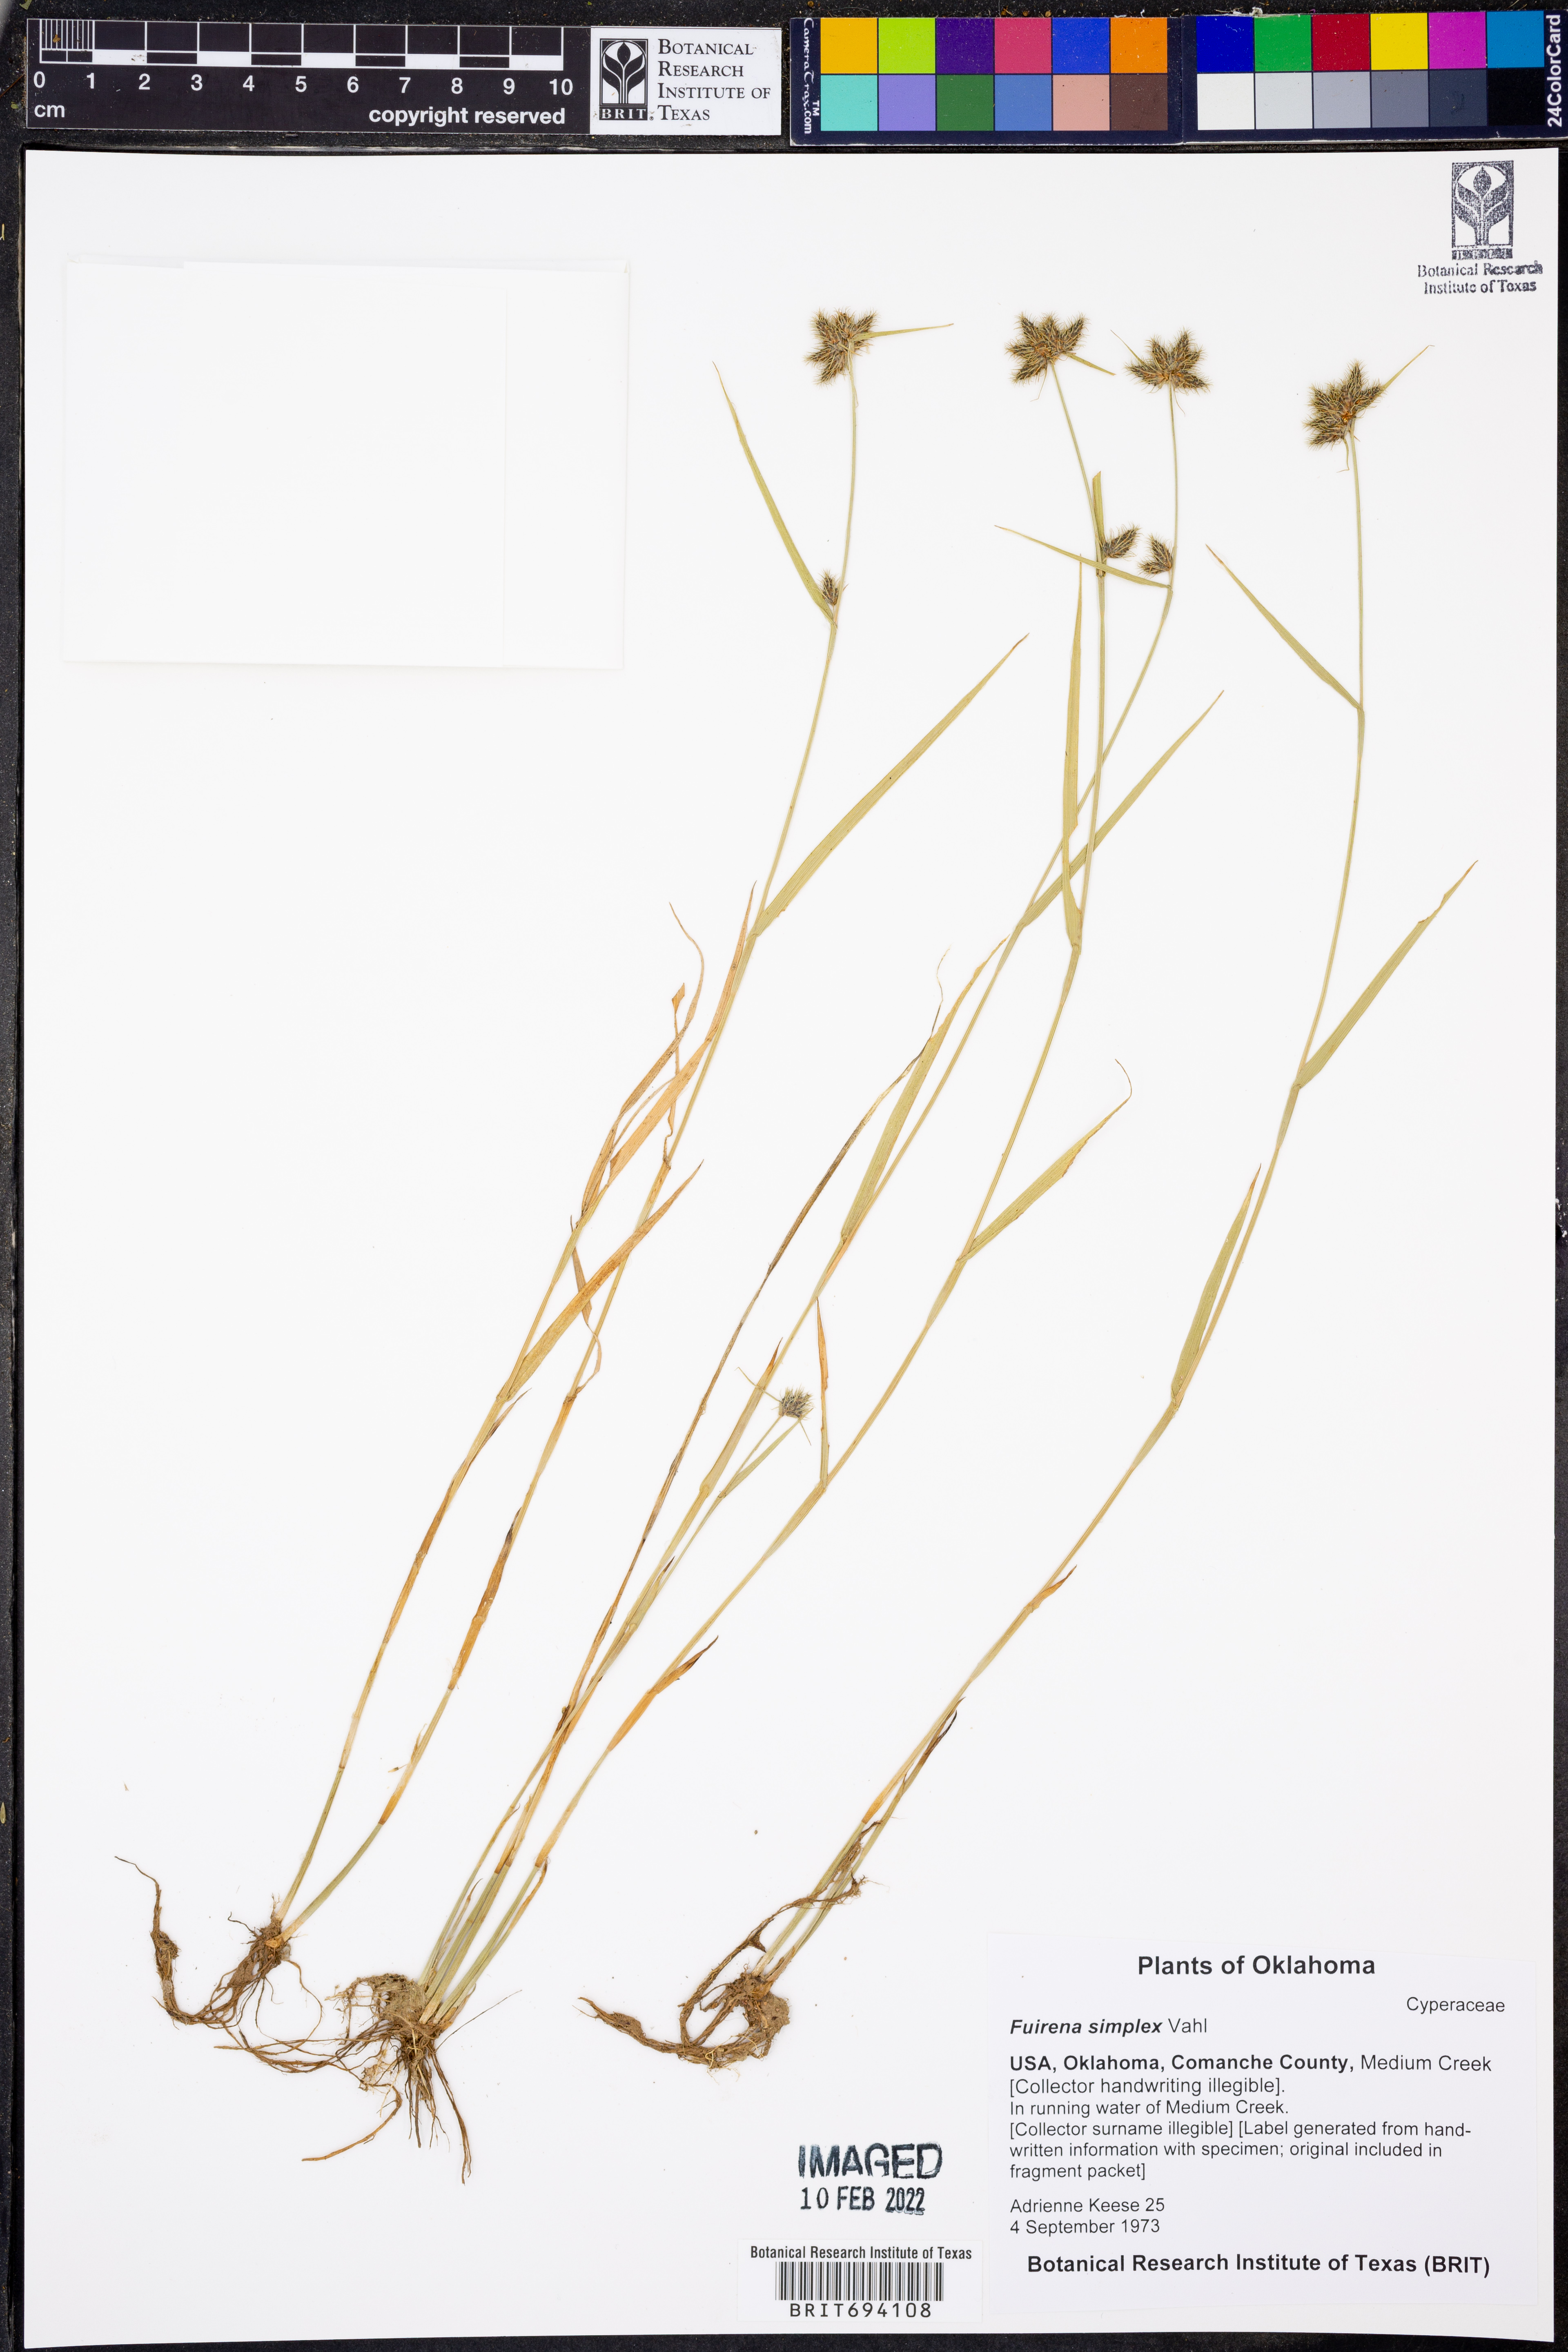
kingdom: Plantae
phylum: Tracheophyta
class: Liliopsida
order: Poales
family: Cyperaceae
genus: Fuirena
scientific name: Fuirena simplex
